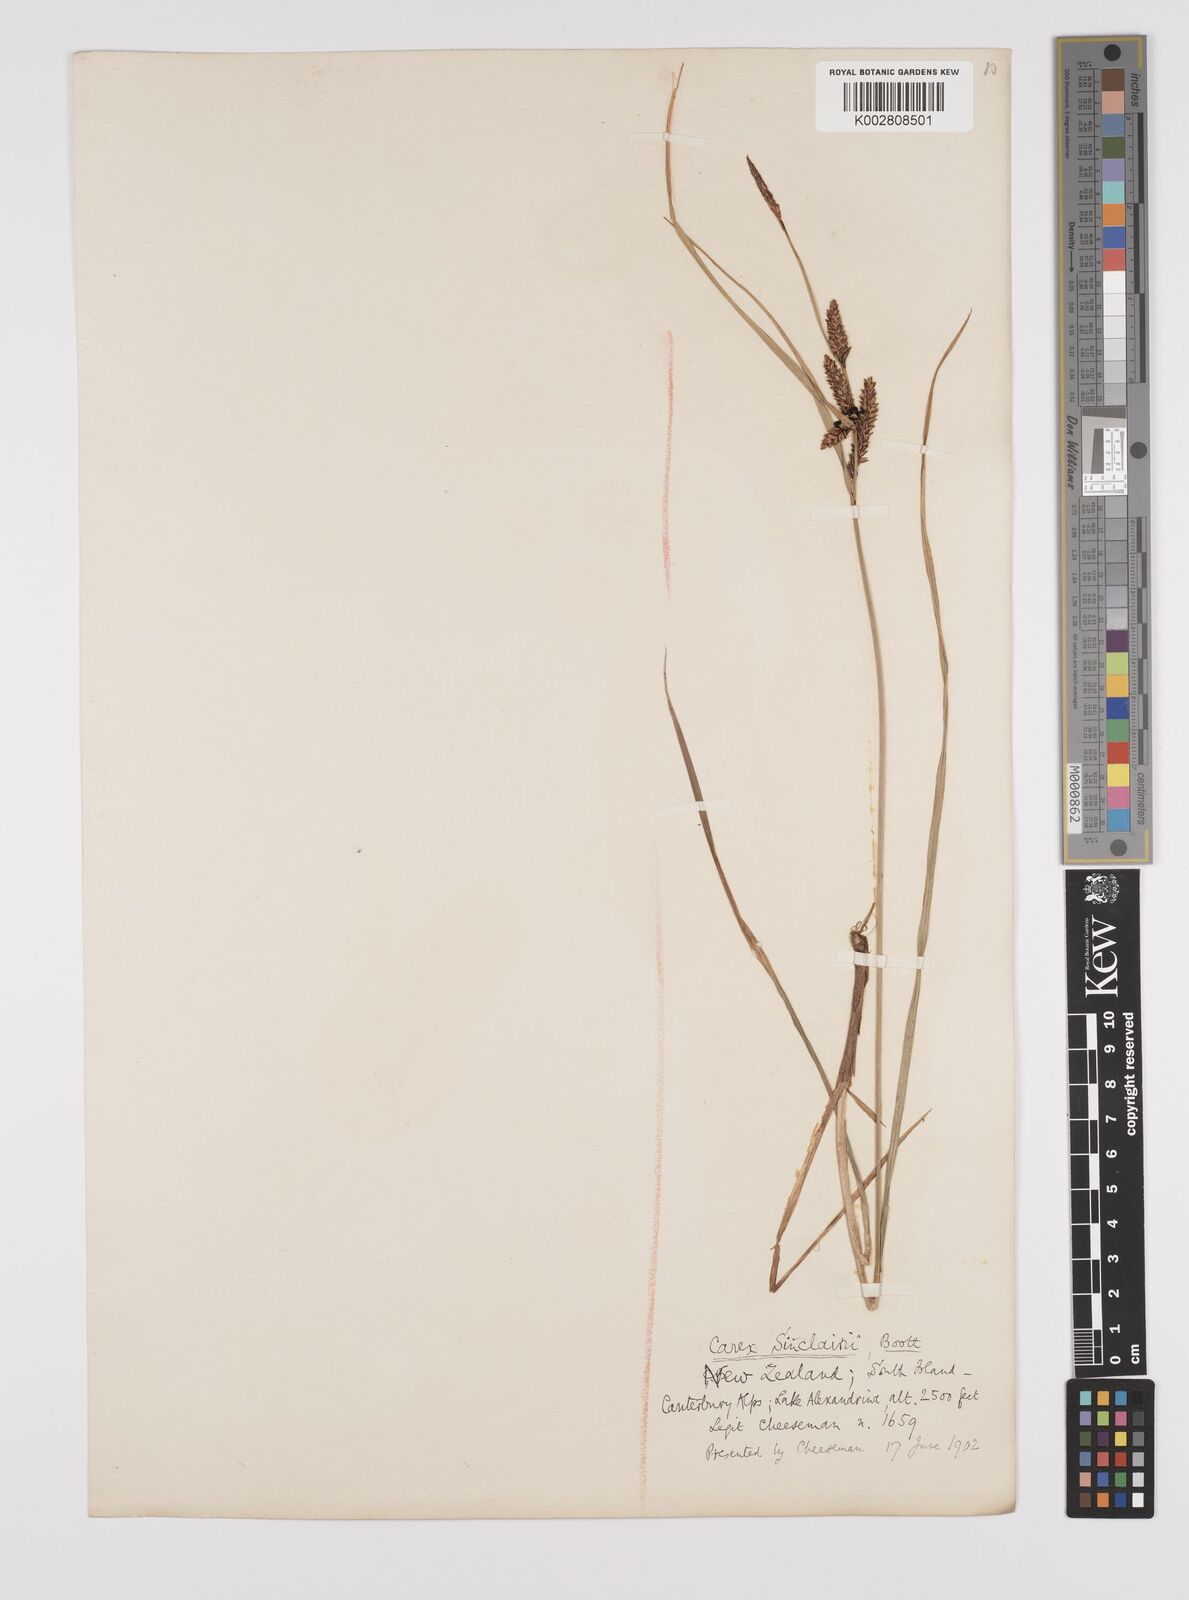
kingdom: Plantae
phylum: Tracheophyta
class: Liliopsida
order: Poales
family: Cyperaceae
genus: Carex
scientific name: Carex sinclairii
